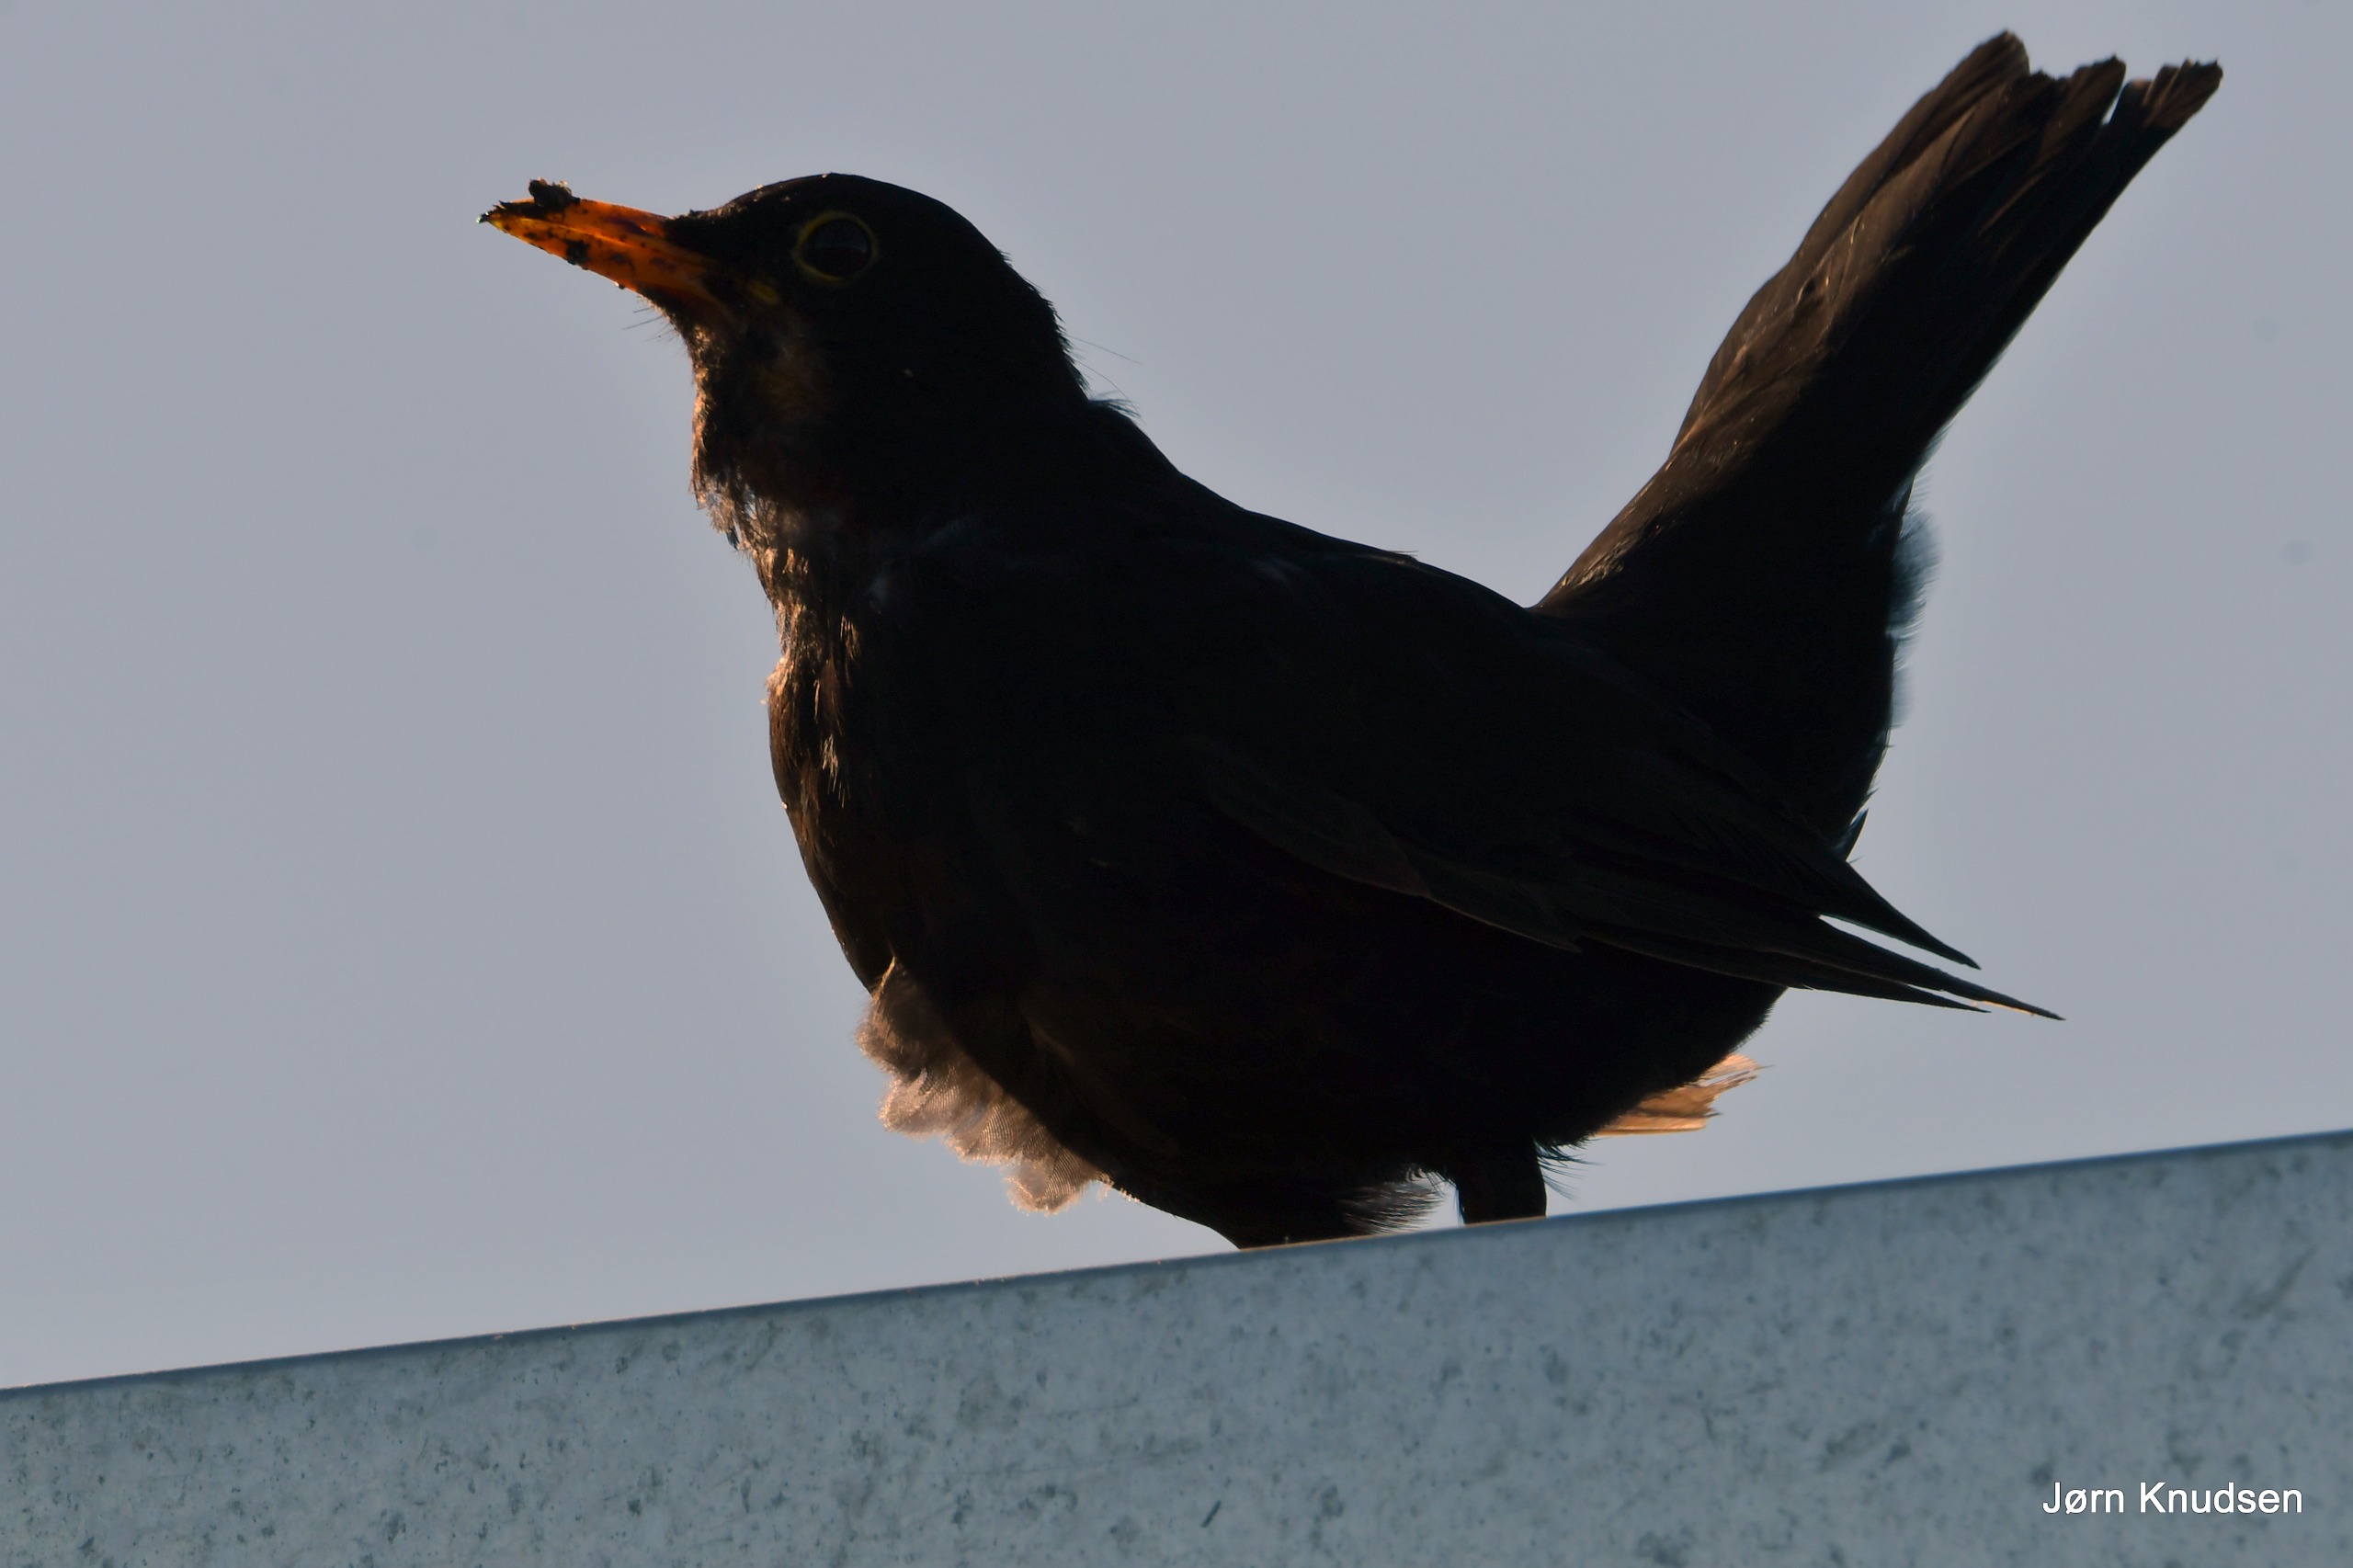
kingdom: Animalia
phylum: Chordata
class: Aves
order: Passeriformes
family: Turdidae
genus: Turdus
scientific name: Turdus merula
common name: Solsort
